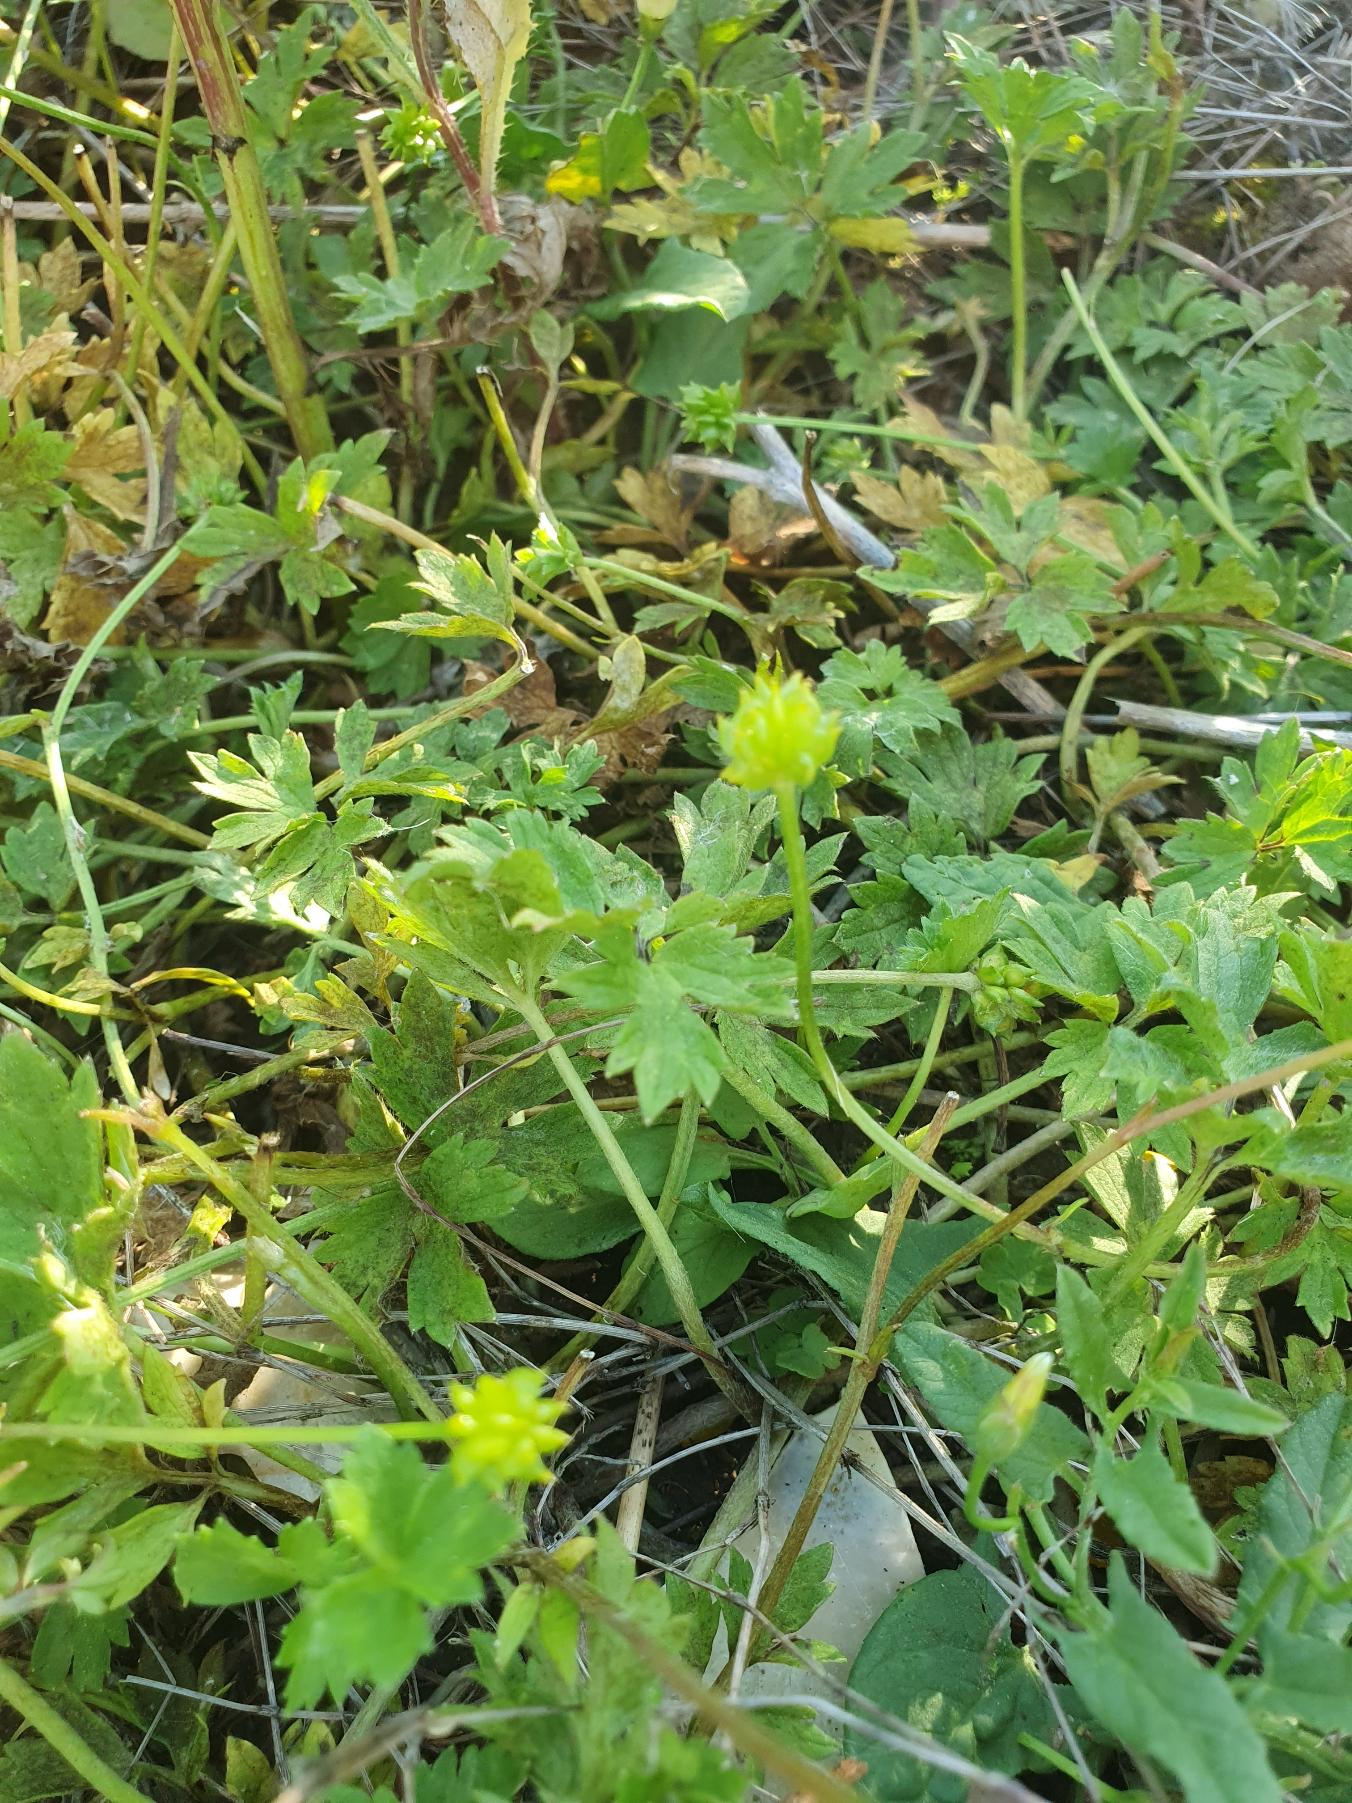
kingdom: Plantae
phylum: Tracheophyta
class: Magnoliopsida
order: Ranunculales
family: Ranunculaceae
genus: Ranunculus
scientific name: Ranunculus repens
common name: Lav ranunkel
